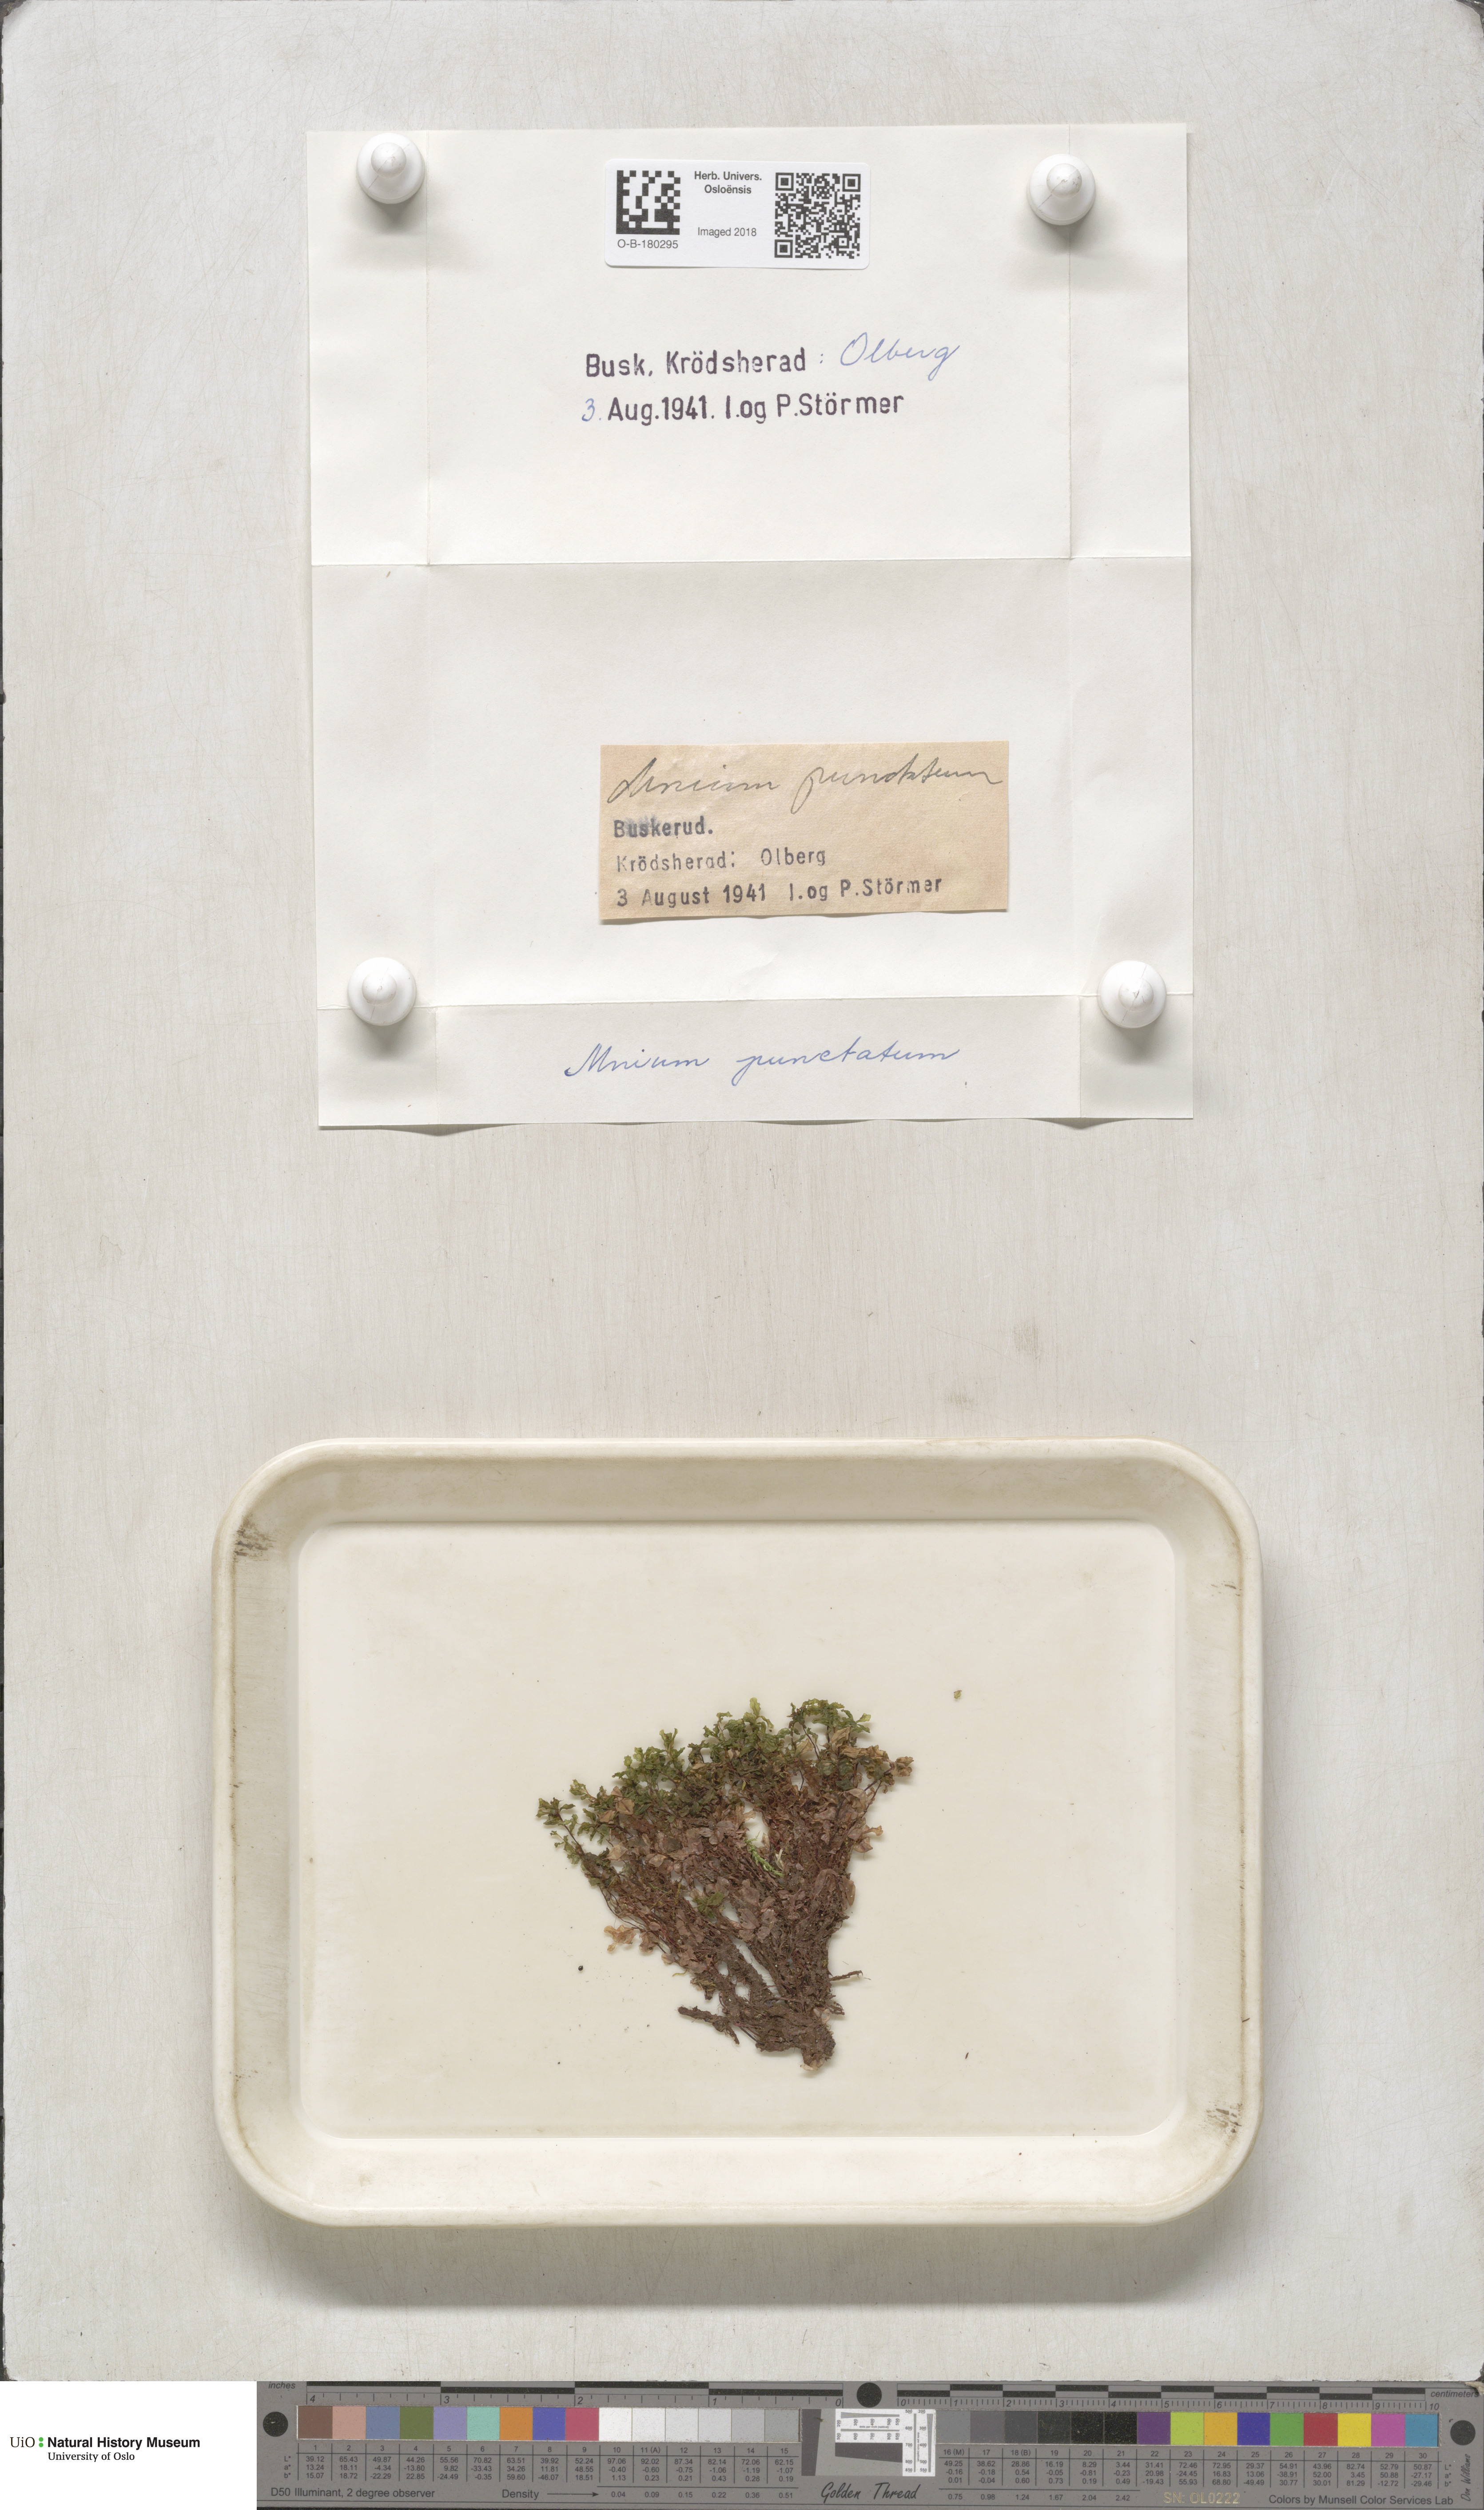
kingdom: Plantae
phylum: Bryophyta
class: Bryopsida
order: Bryales
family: Mniaceae
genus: Rhizomnium
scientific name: Rhizomnium punctatum
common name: Dotted leafy moss
